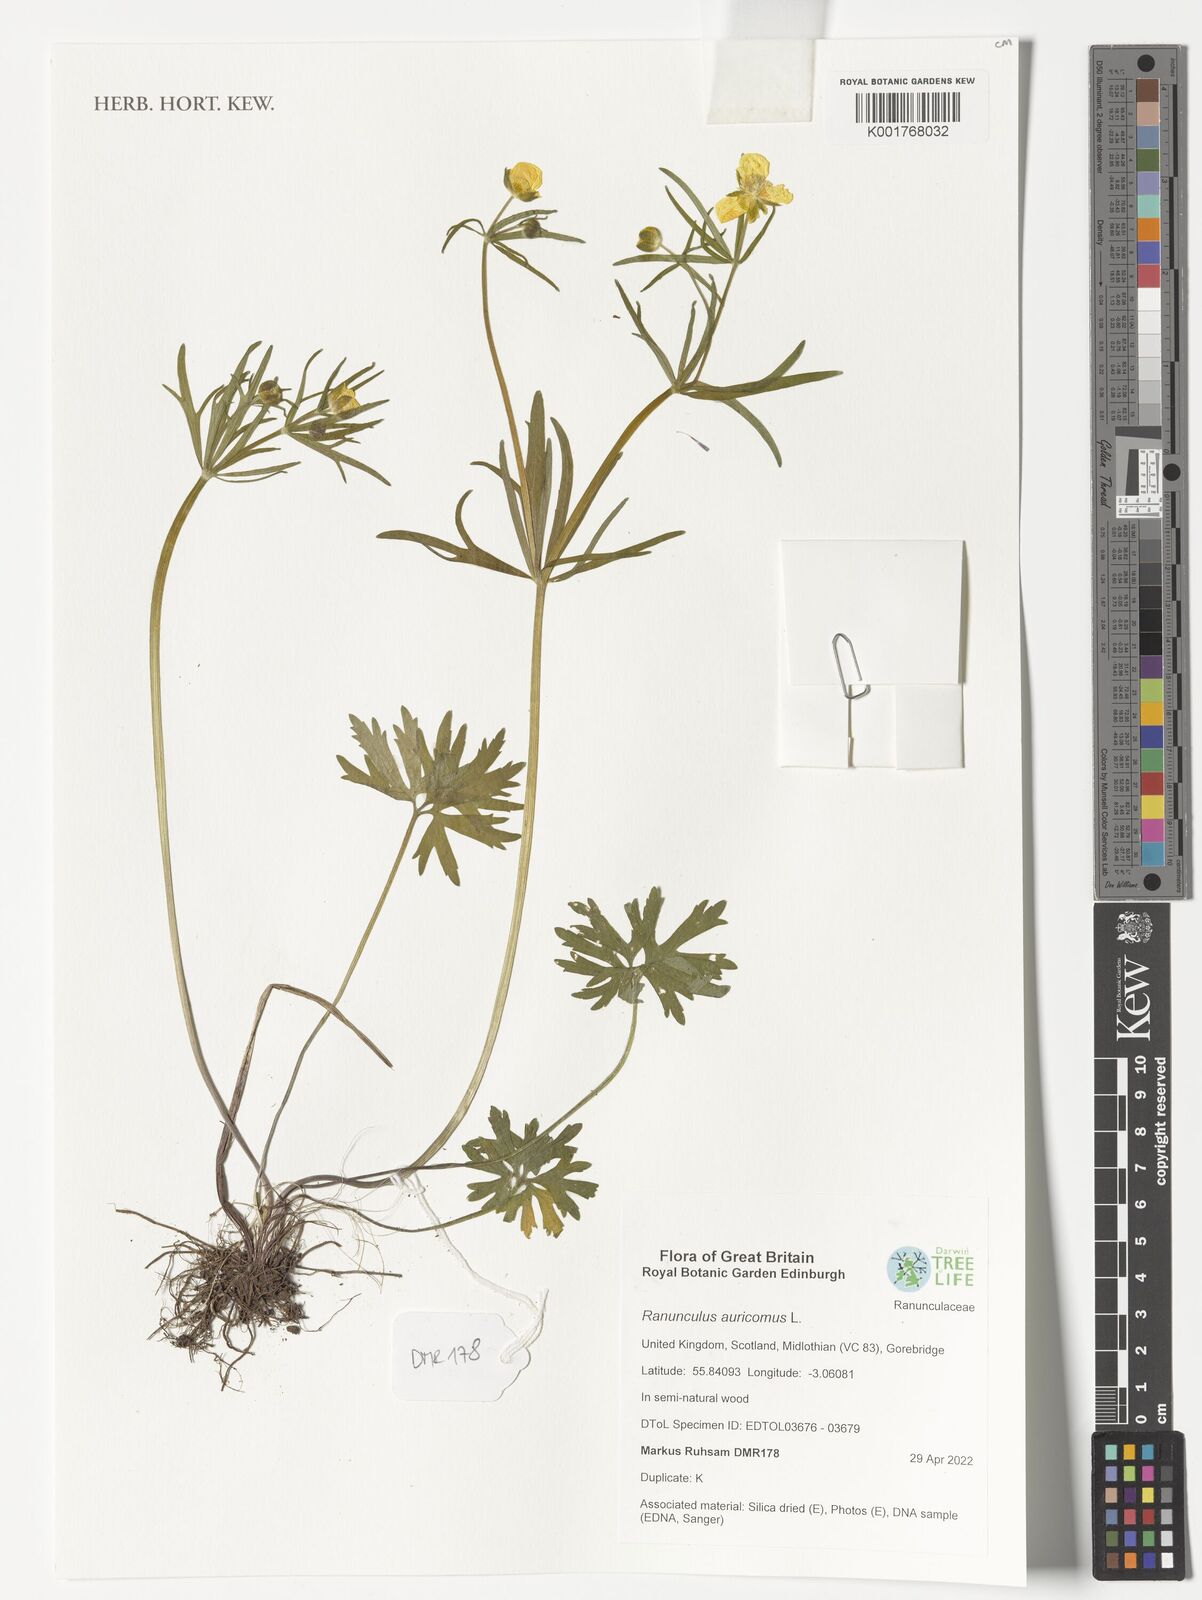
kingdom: Plantae
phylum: Tracheophyta
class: Magnoliopsida
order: Ranunculales
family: Ranunculaceae
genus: Ranunculus
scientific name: Ranunculus auricomus
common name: Goldilocks buttercup
